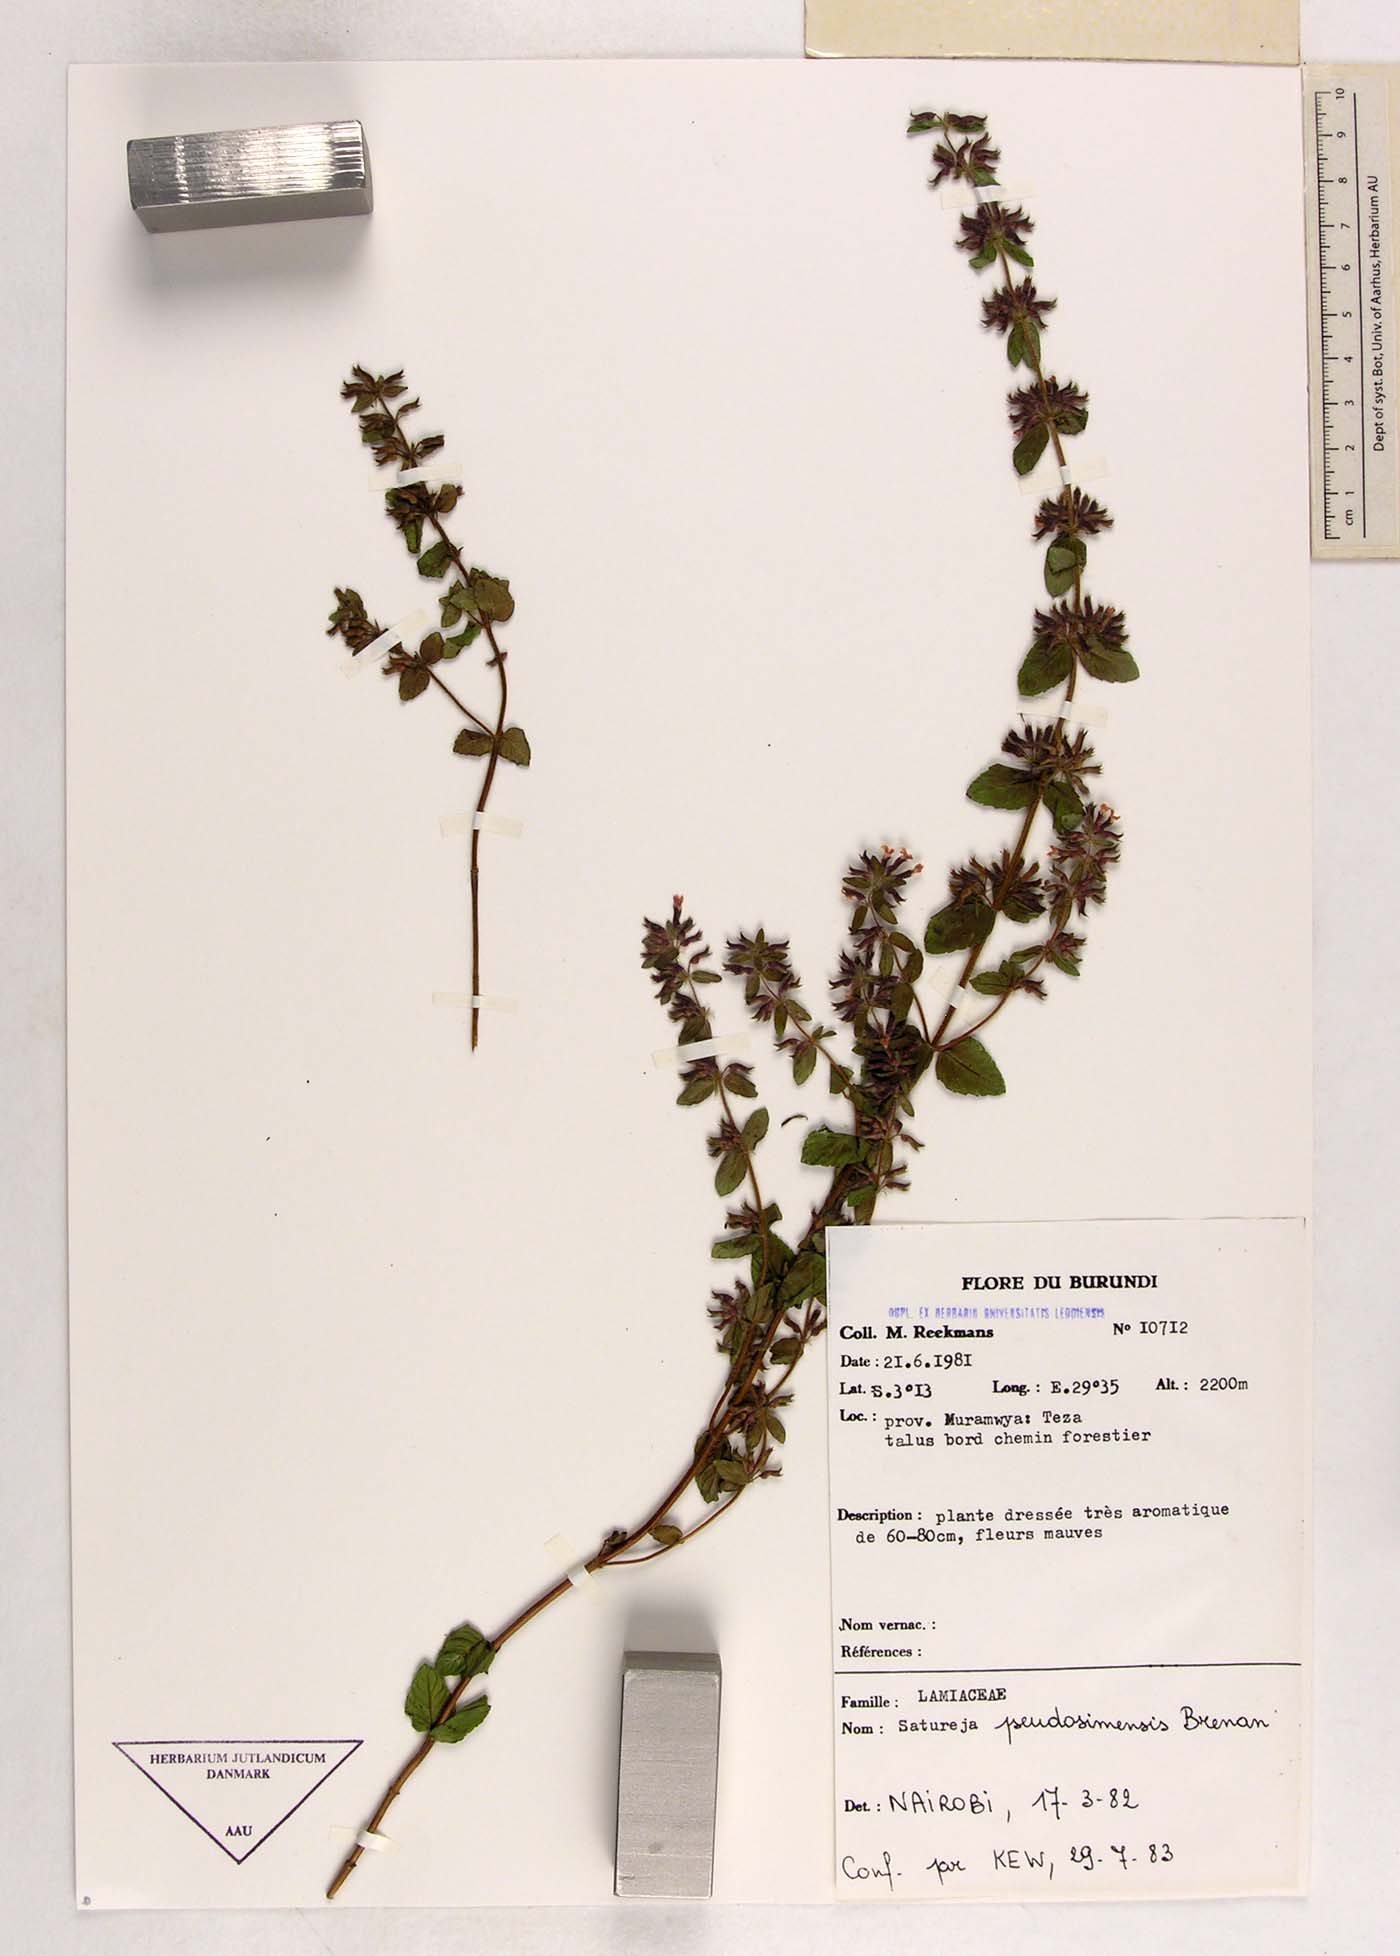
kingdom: Plantae
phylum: Tracheophyta
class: Magnoliopsida
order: Lamiales
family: Lamiaceae
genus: Clinopodium
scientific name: Clinopodium uhligii
